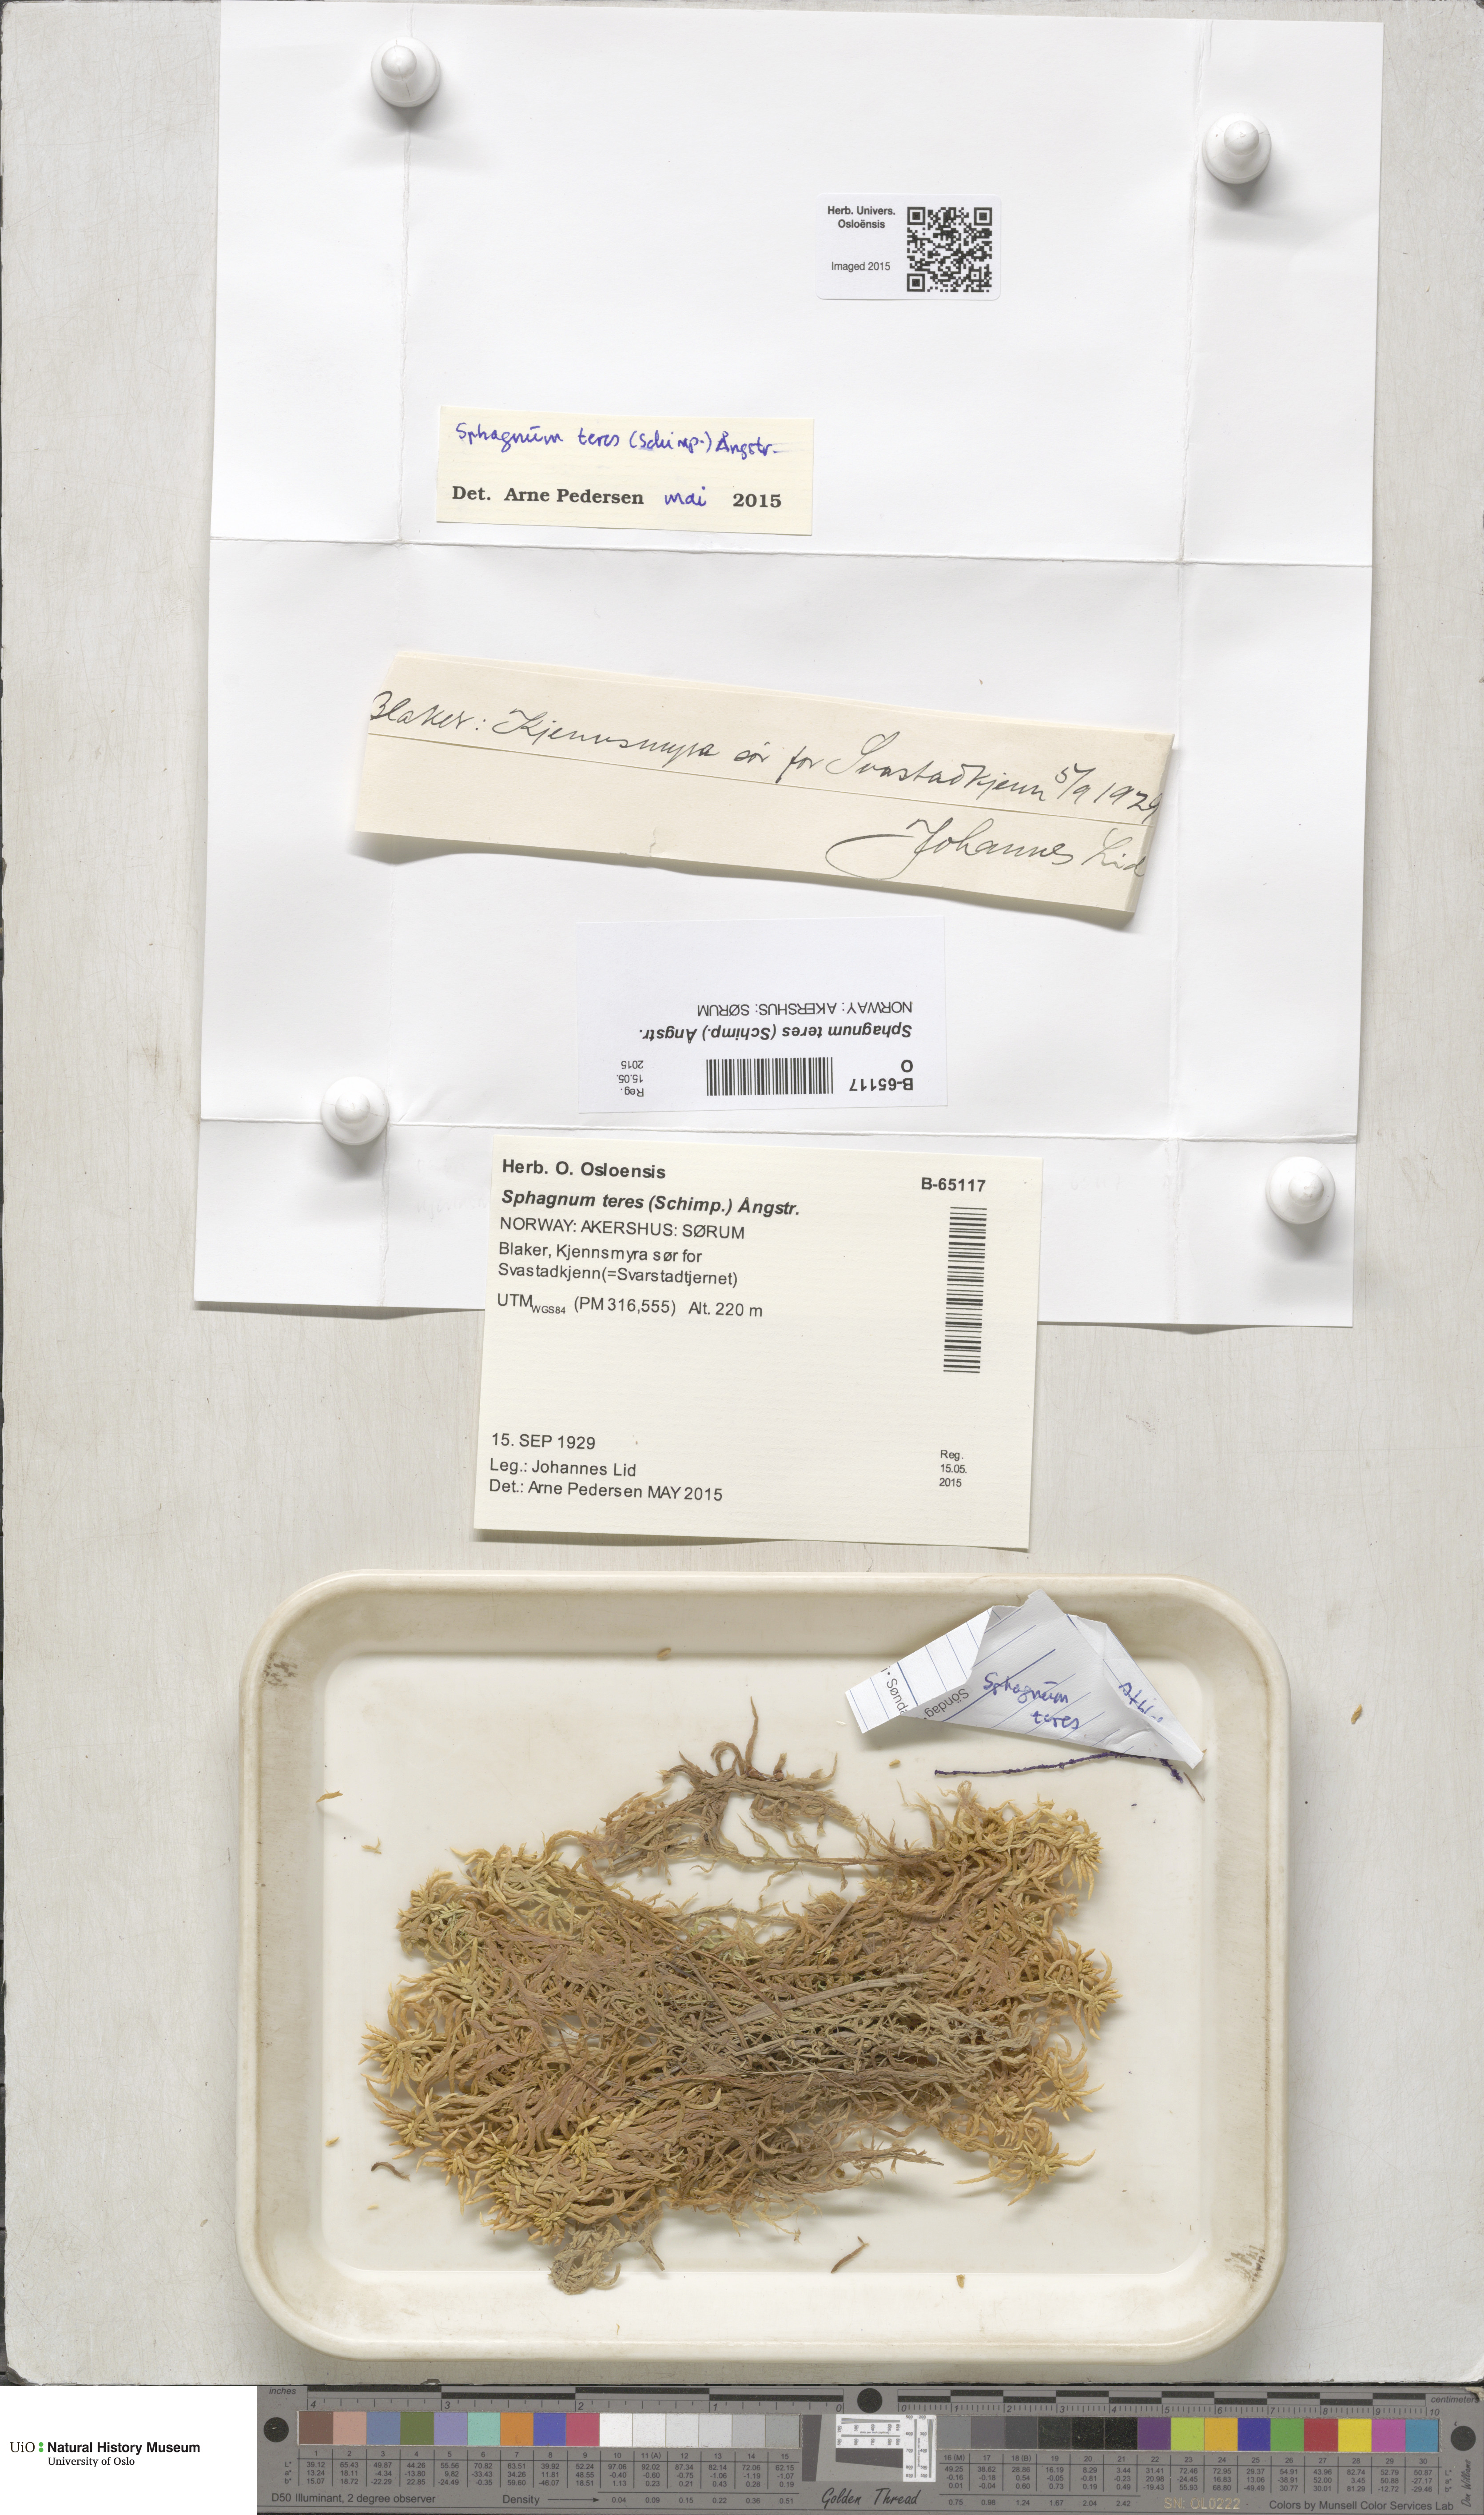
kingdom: Plantae
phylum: Bryophyta
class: Sphagnopsida
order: Sphagnales
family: Sphagnaceae
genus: Sphagnum
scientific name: Sphagnum teres
